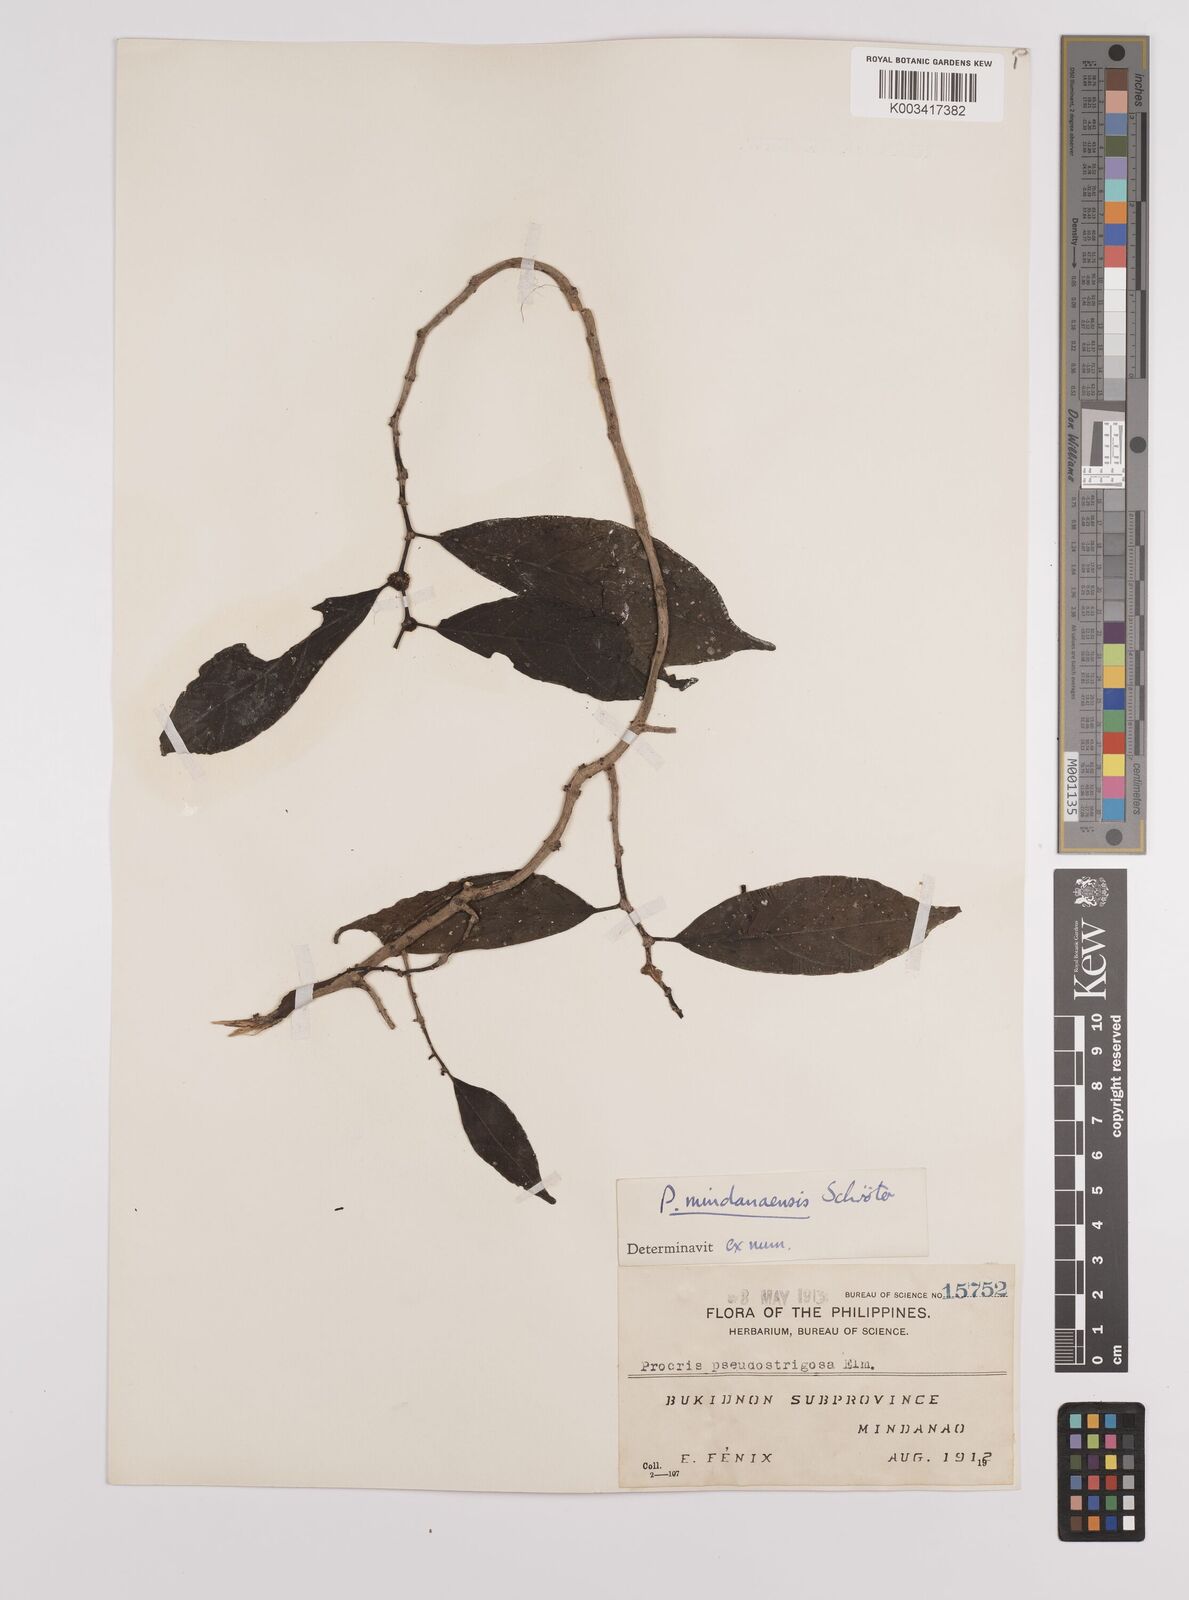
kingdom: Plantae
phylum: Tracheophyta
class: Magnoliopsida
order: Rosales
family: Urticaceae
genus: Procris
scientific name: Procris mindanaensis
